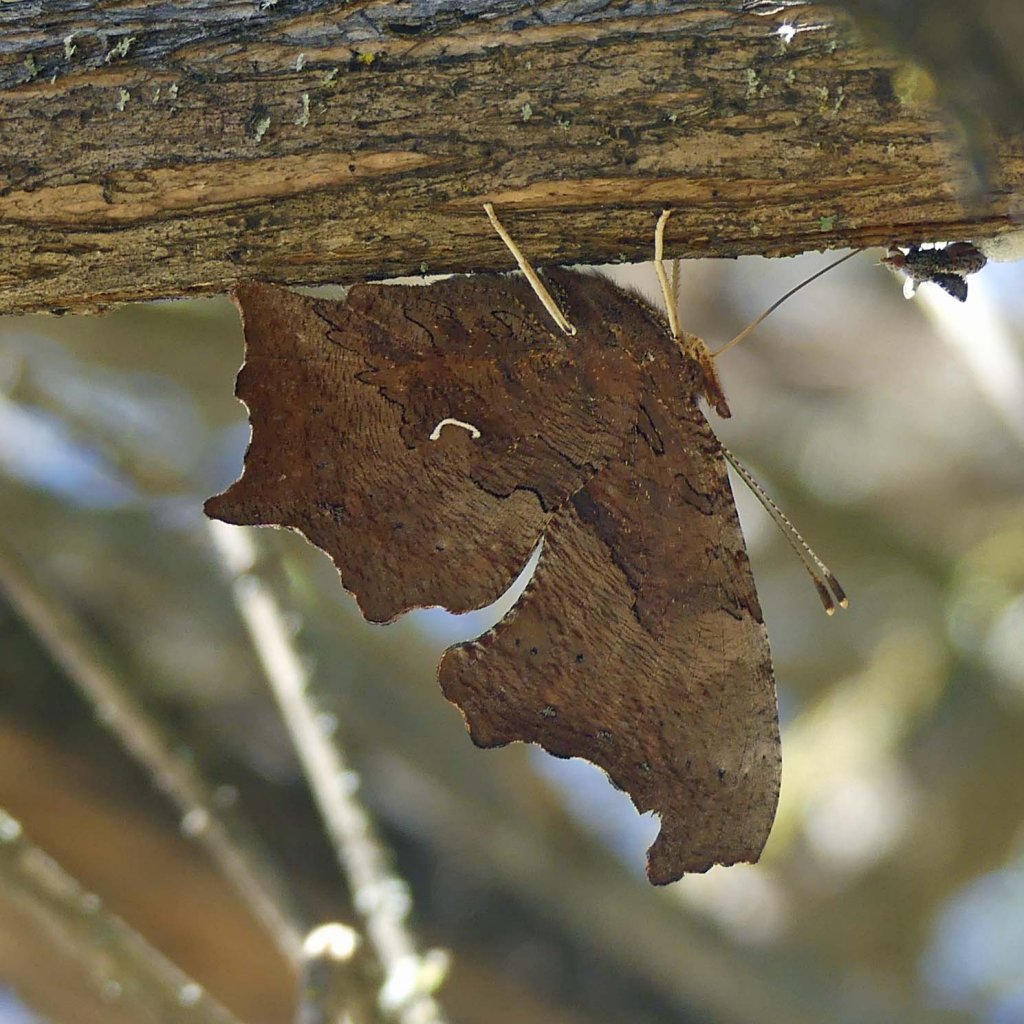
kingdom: Animalia
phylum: Arthropoda
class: Insecta
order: Lepidoptera
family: Nymphalidae
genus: Polygonia
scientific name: Polygonia comma
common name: Eastern Comma
